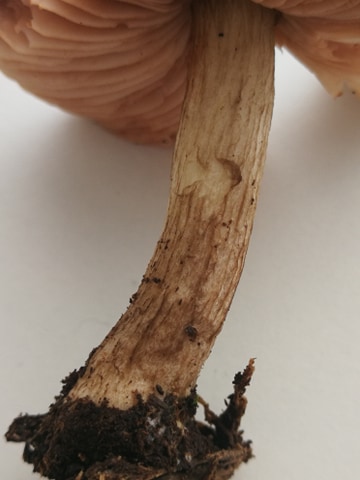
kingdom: Fungi
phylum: Basidiomycota
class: Agaricomycetes
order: Agaricales
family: Pluteaceae
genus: Pluteus
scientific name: Pluteus
